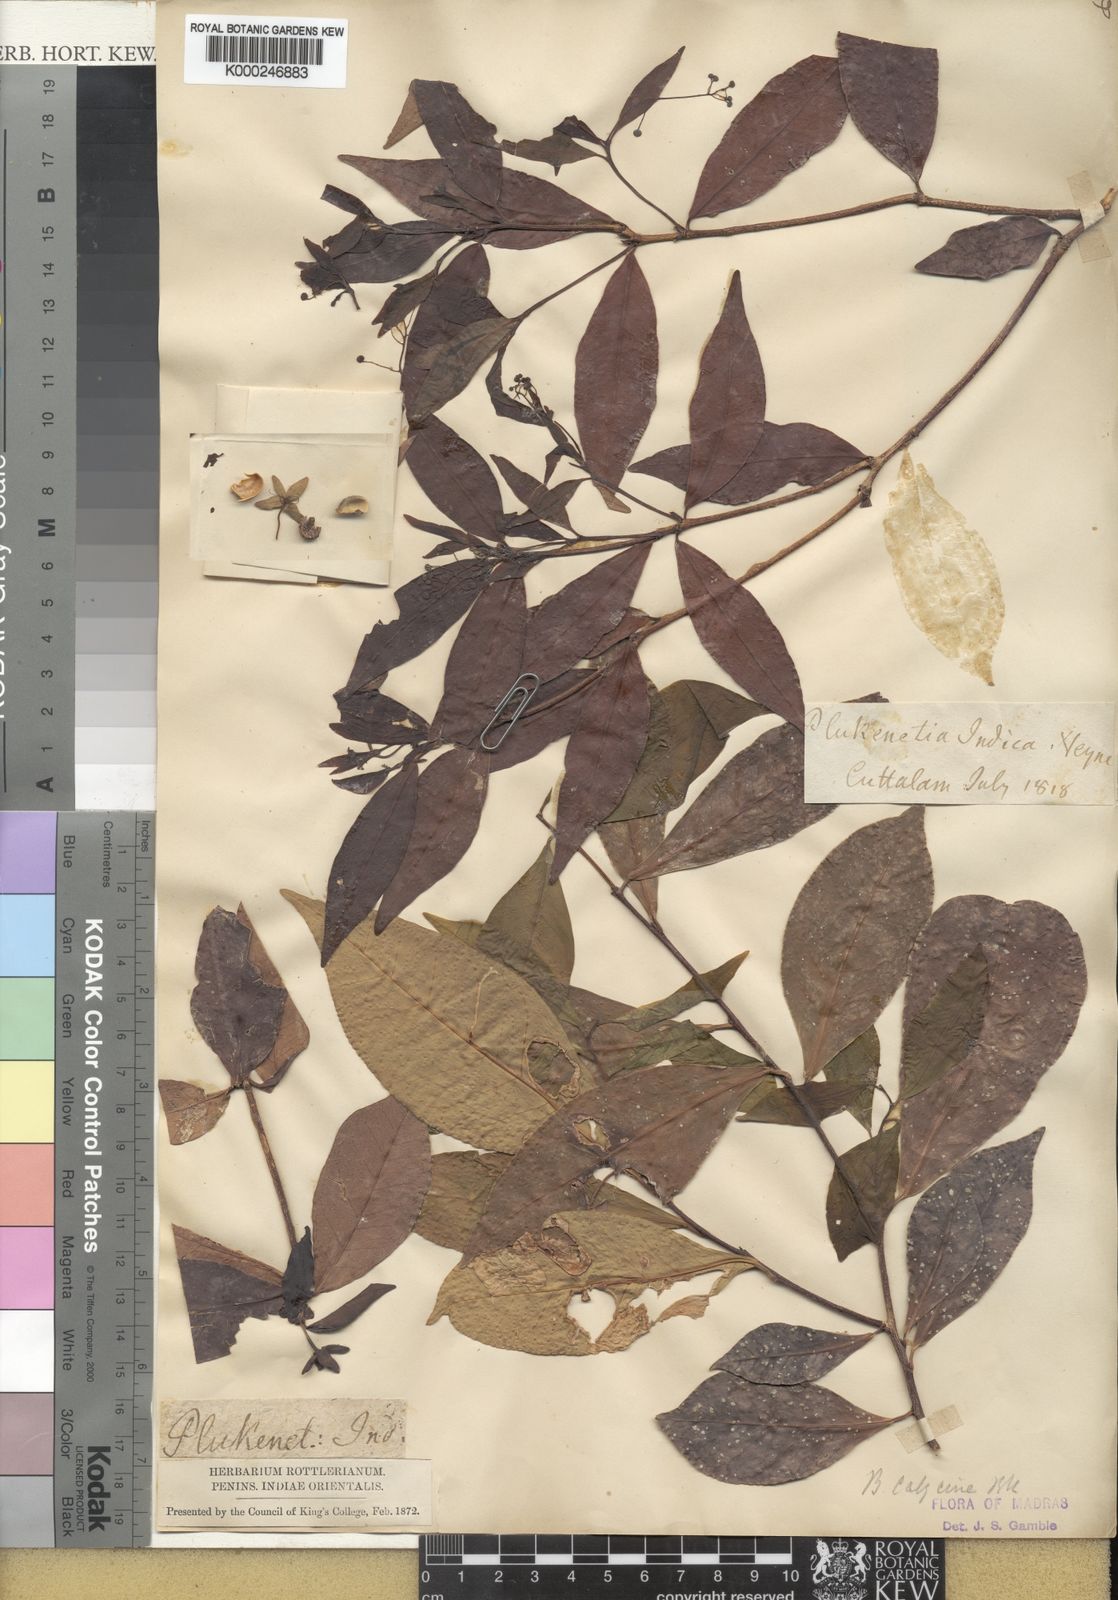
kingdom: Plantae
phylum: Tracheophyta
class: Magnoliopsida
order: Malpighiales
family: Euphorbiaceae
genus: Blachia
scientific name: Blachia calycina
